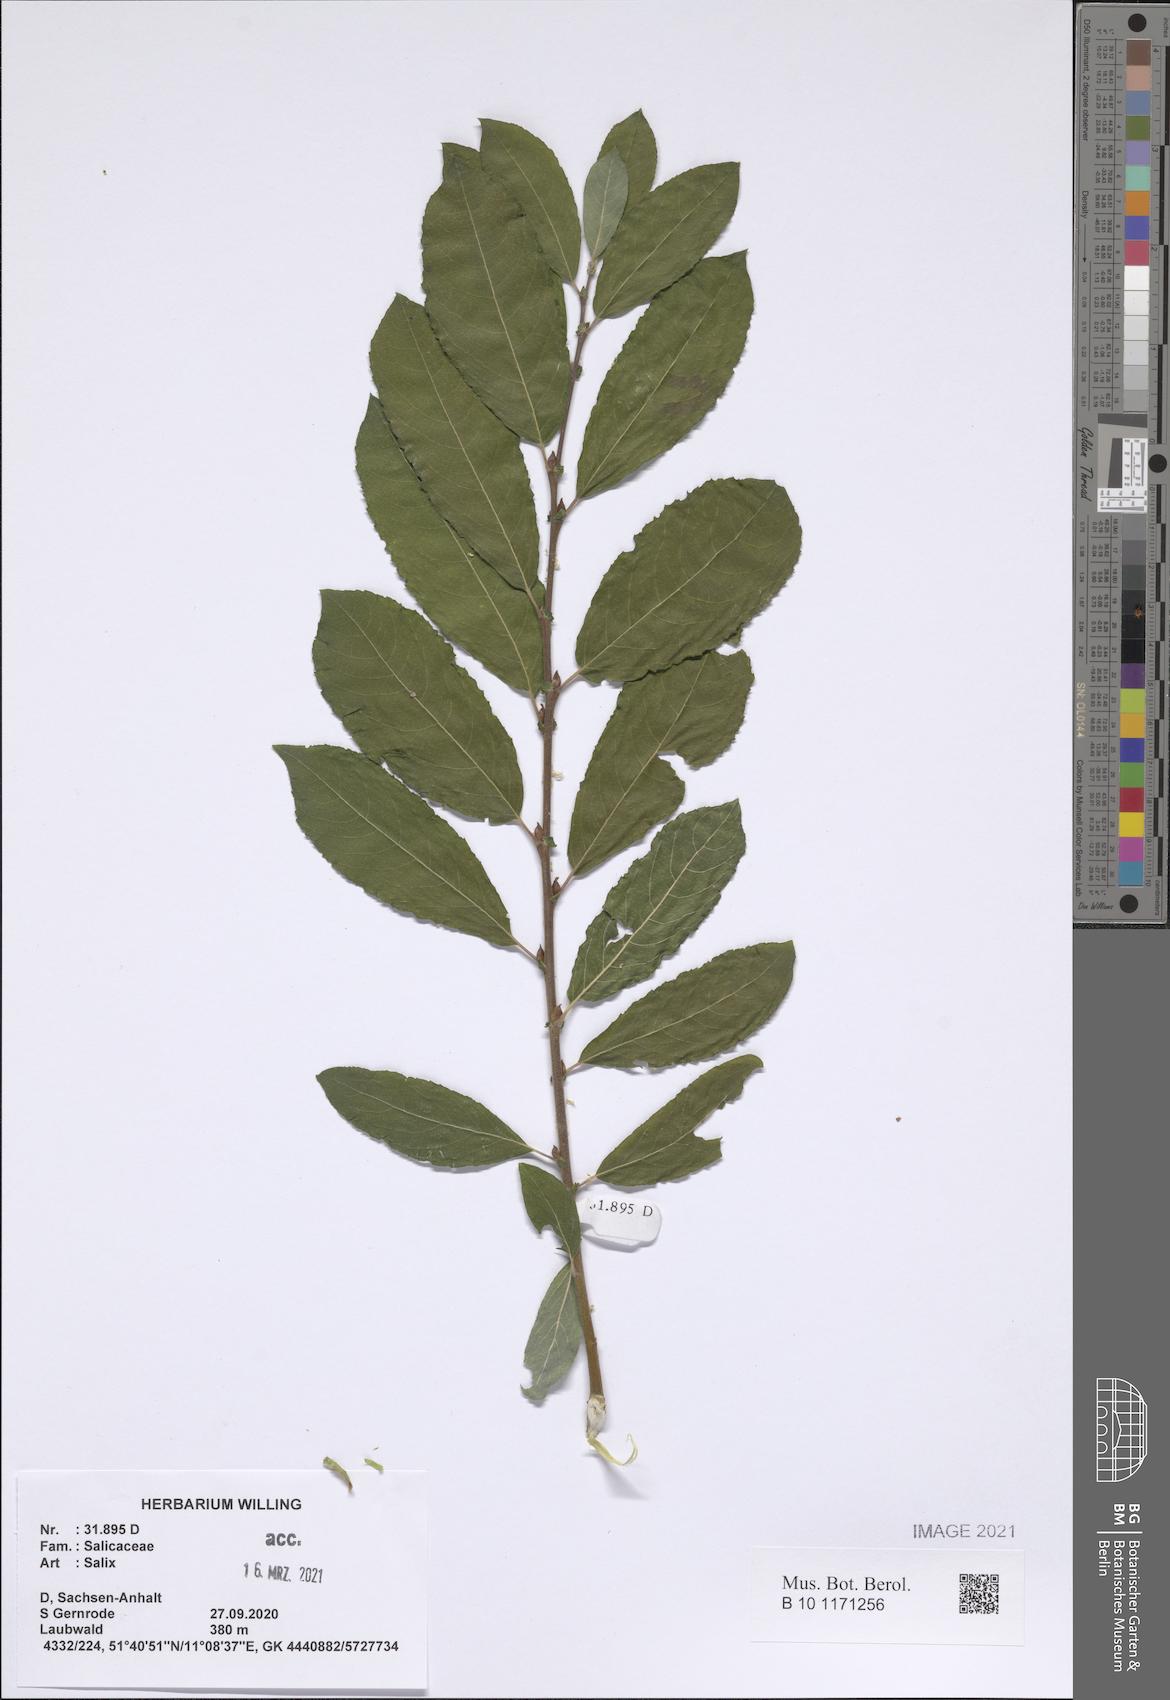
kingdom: Plantae
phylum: Tracheophyta
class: Magnoliopsida
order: Malpighiales
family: Salicaceae
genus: Salix
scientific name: Salix
